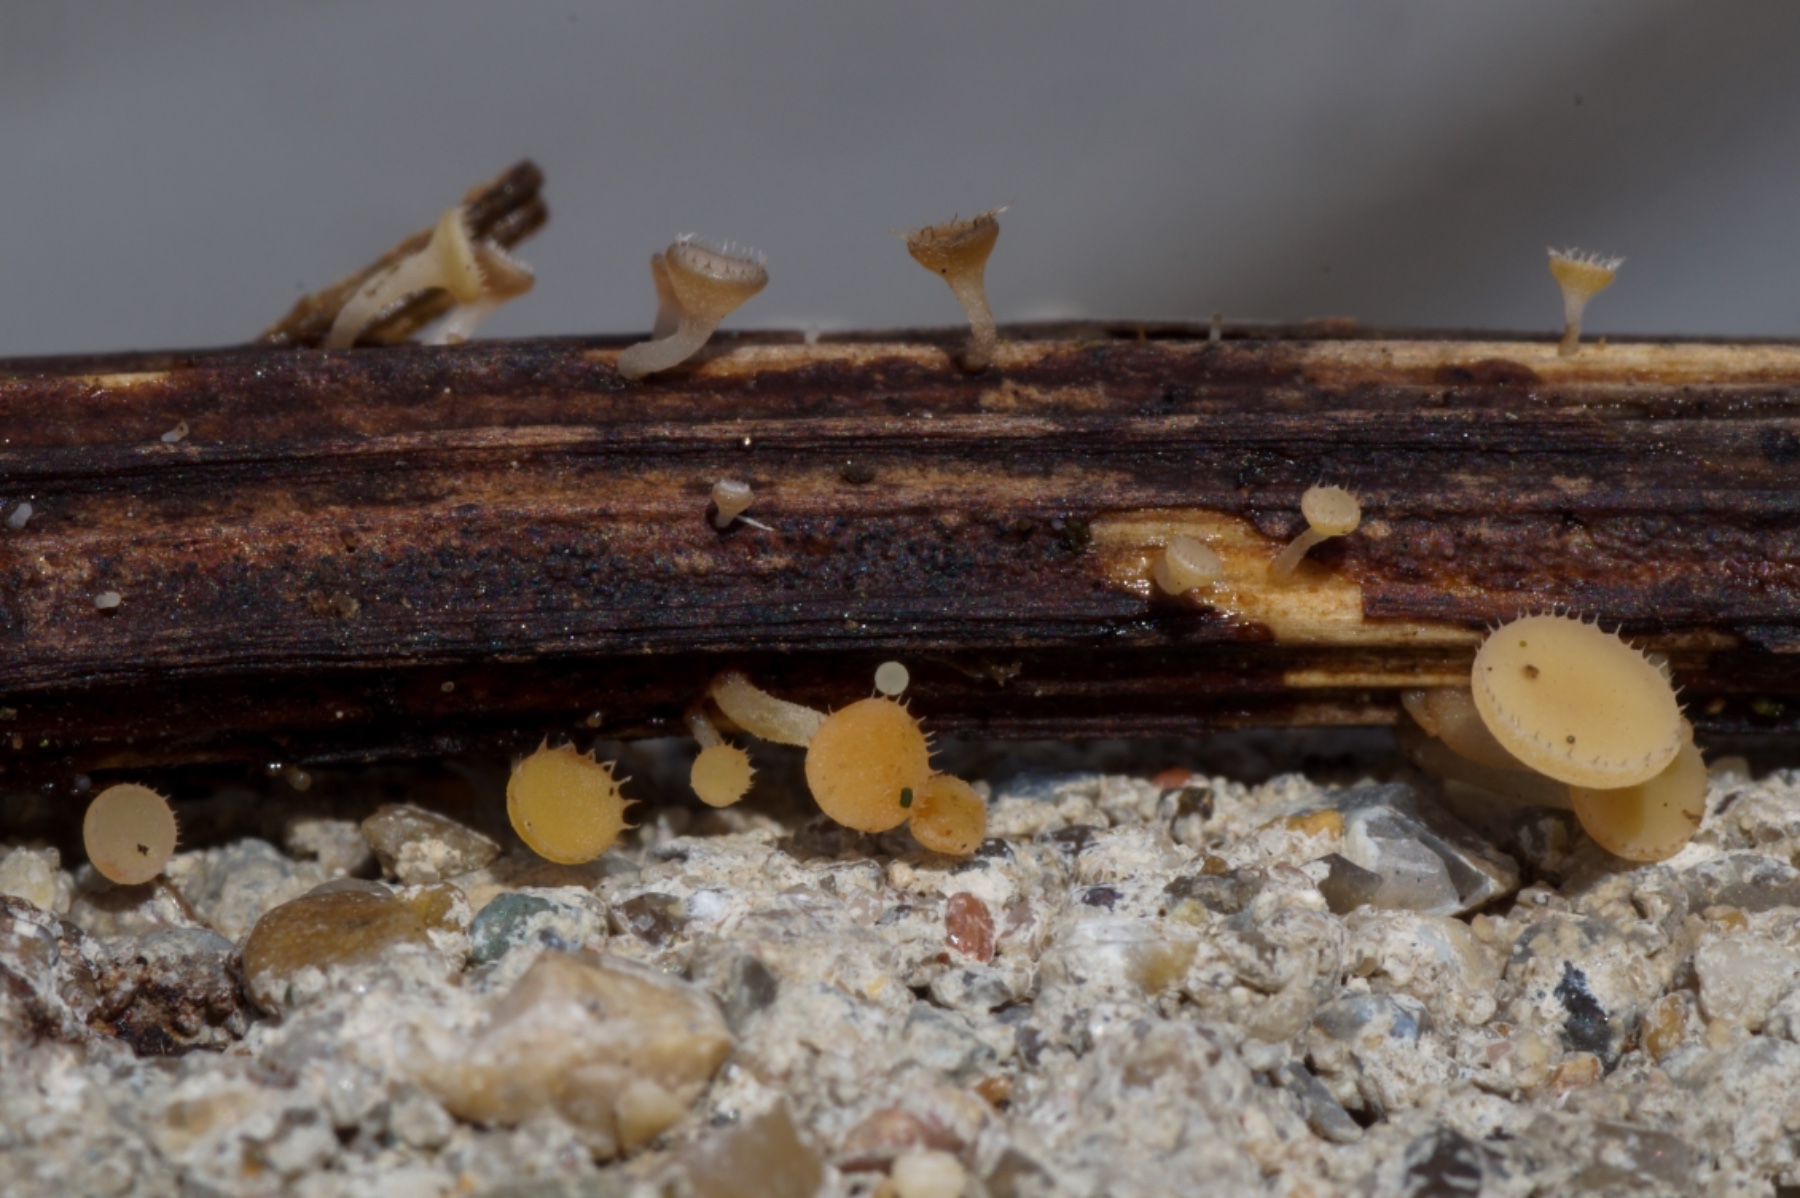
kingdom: Fungi
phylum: Ascomycota
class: Leotiomycetes
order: Helotiales
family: Helotiaceae
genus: Cyathicula
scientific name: Cyathicula coronata
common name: krone-stilkskive
